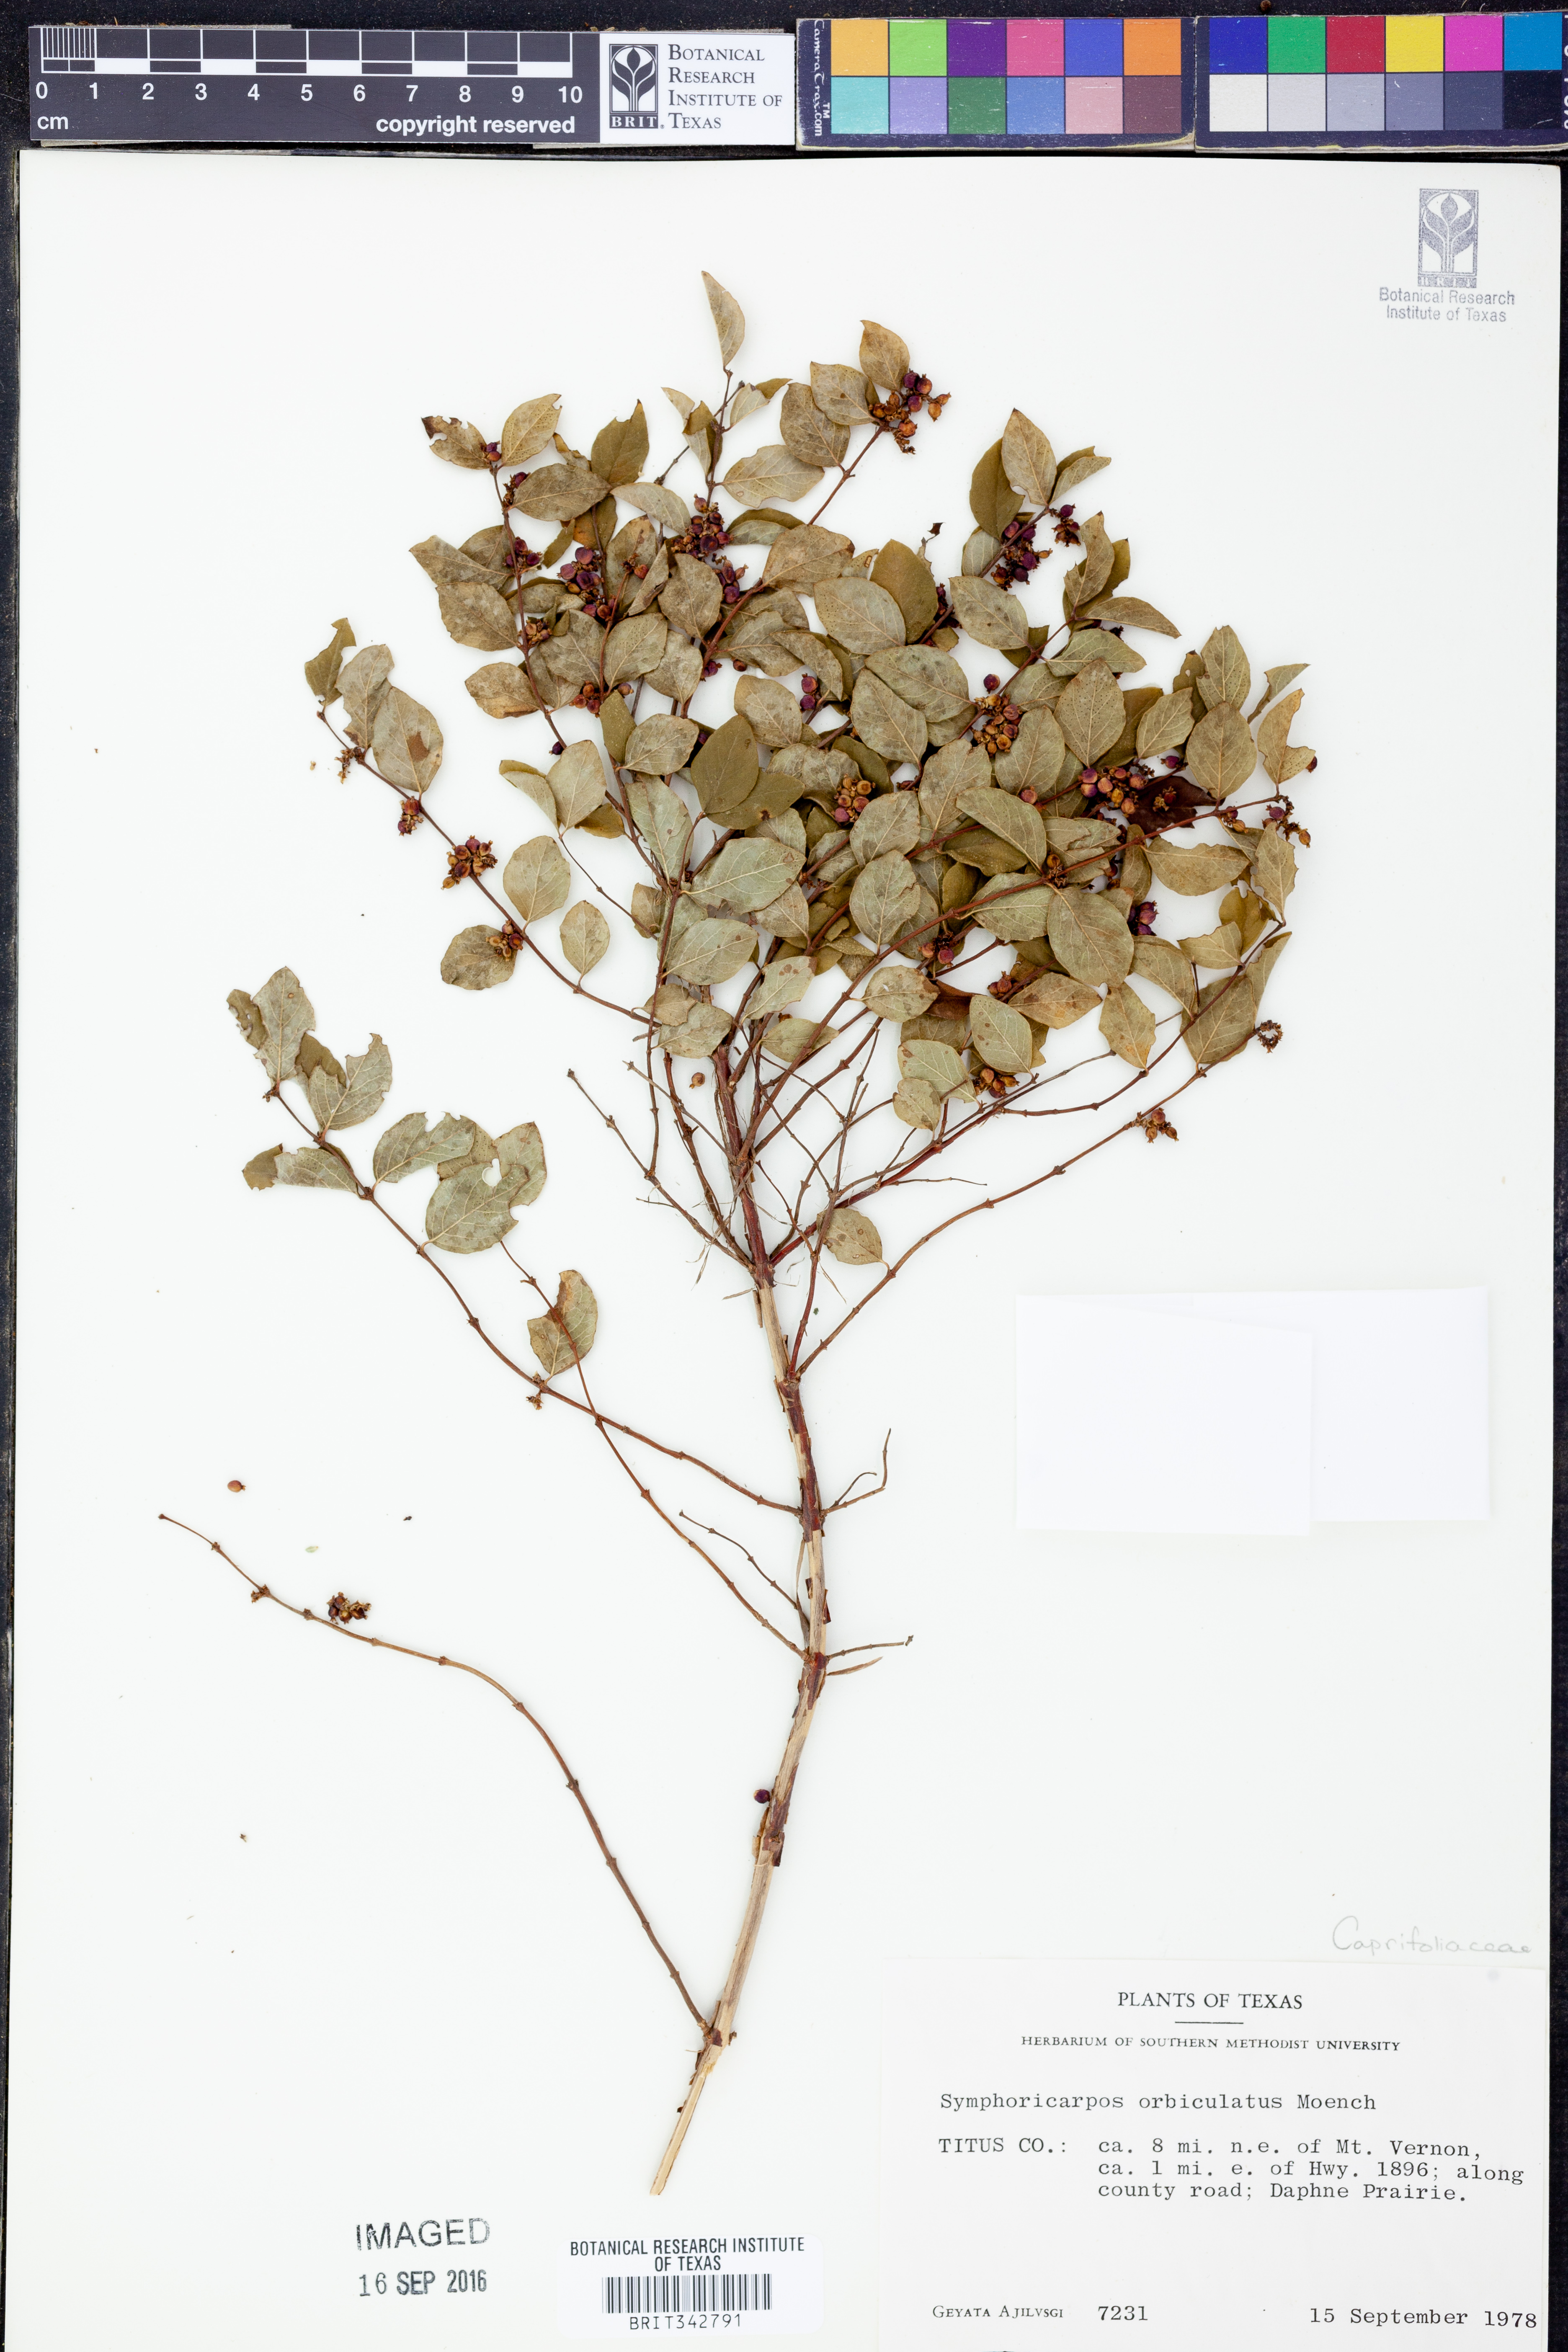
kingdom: Plantae
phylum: Tracheophyta
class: Magnoliopsida
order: Dipsacales
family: Caprifoliaceae
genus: Symphoricarpos
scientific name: Symphoricarpos orbiculatus
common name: Coralberry
